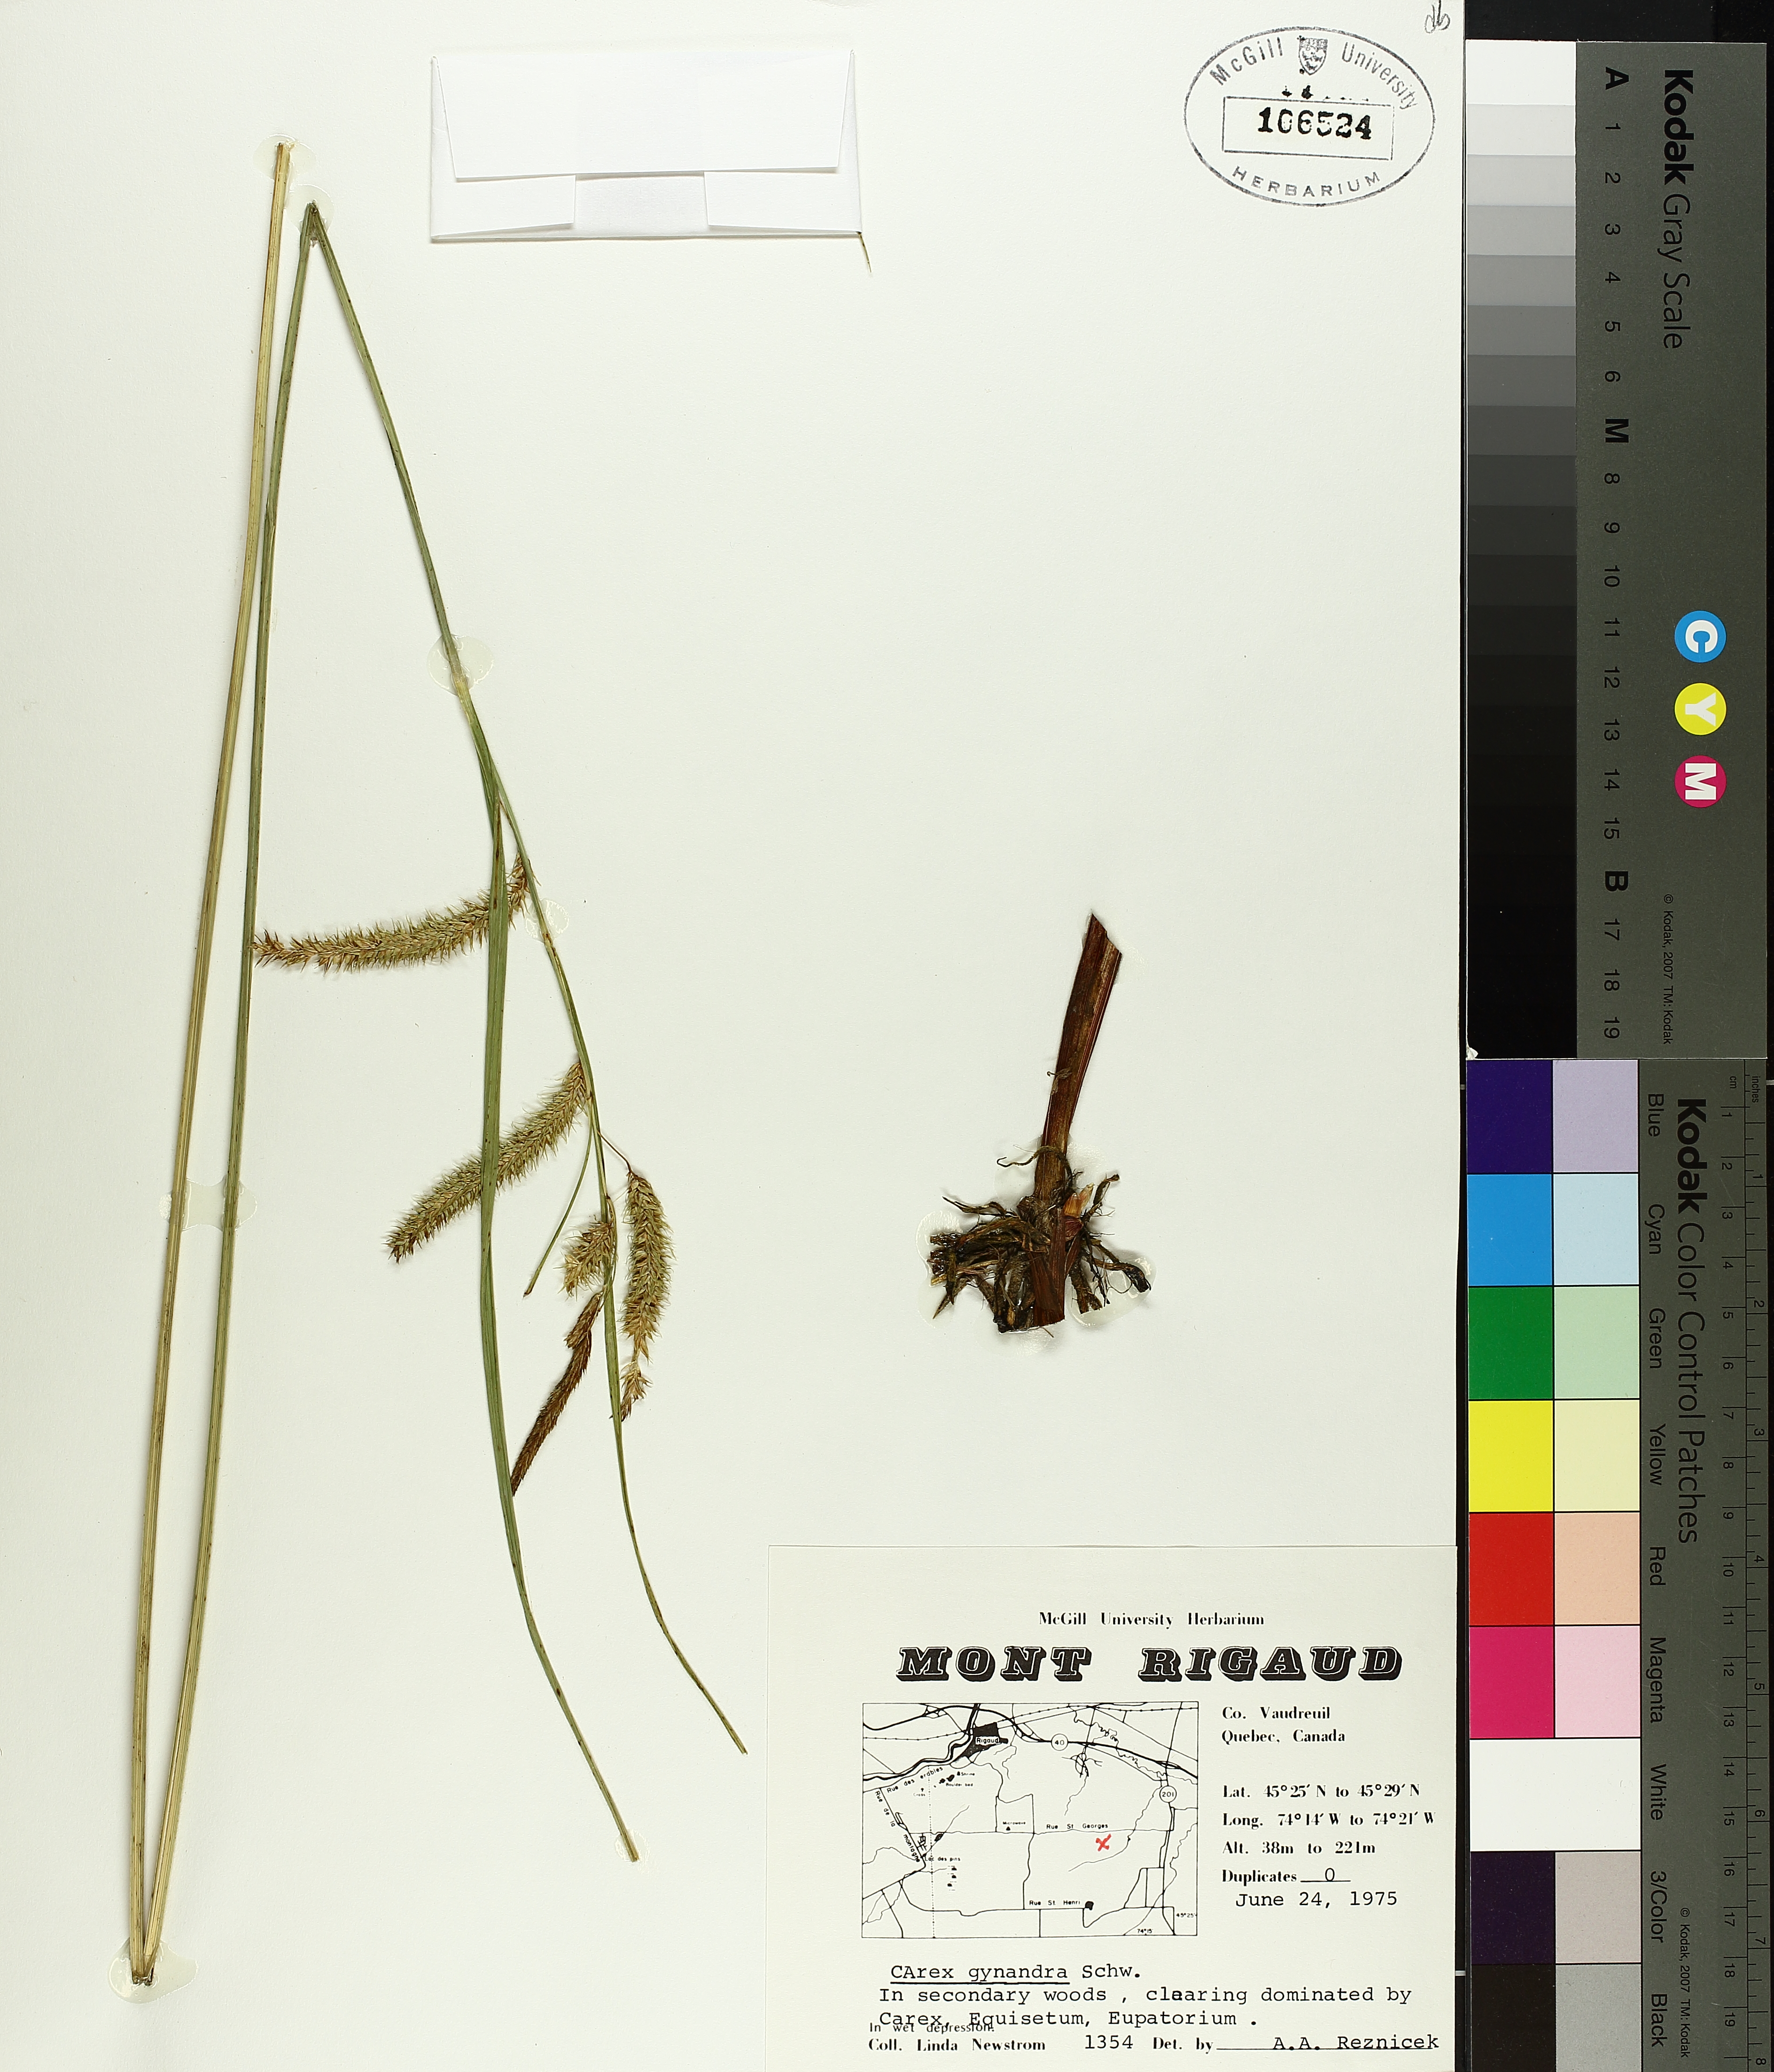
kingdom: Plantae
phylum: Tracheophyta
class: Liliopsida
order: Poales
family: Cyperaceae
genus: Carex
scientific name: Carex gynandra
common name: Nodding sedge
